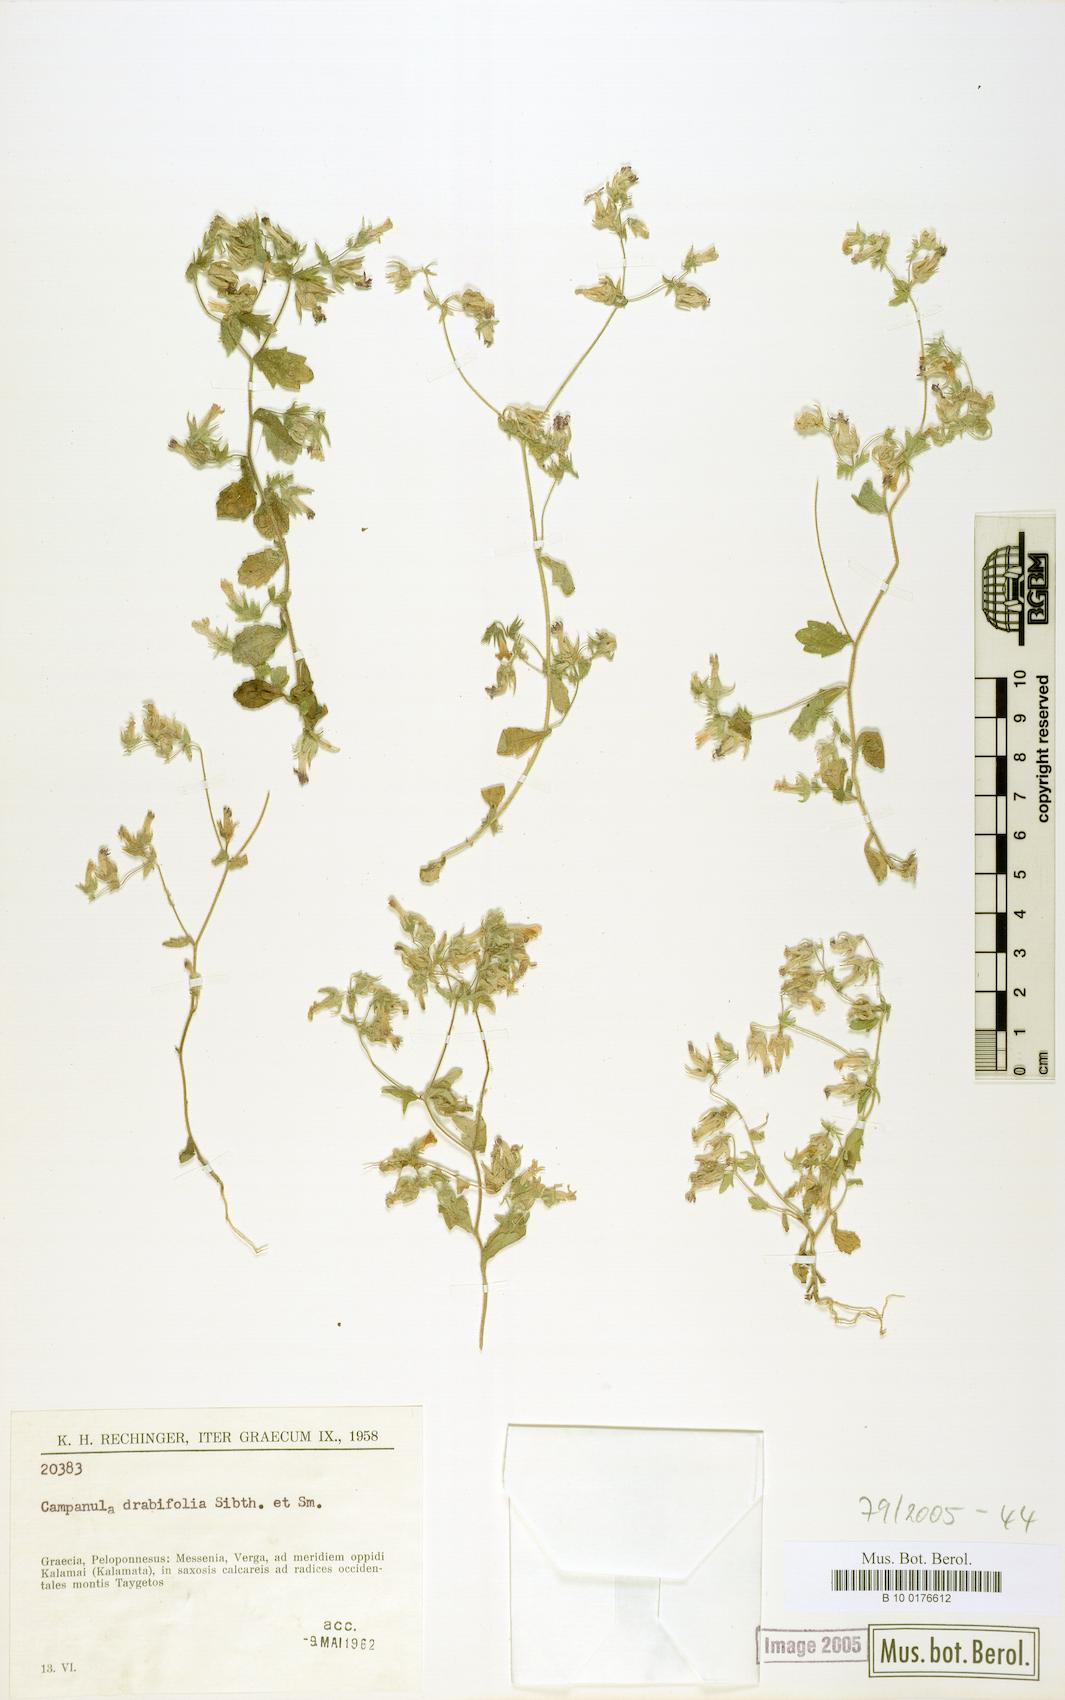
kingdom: Plantae
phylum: Tracheophyta
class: Magnoliopsida
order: Asterales
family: Campanulaceae
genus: Campanula
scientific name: Campanula drabifolia
